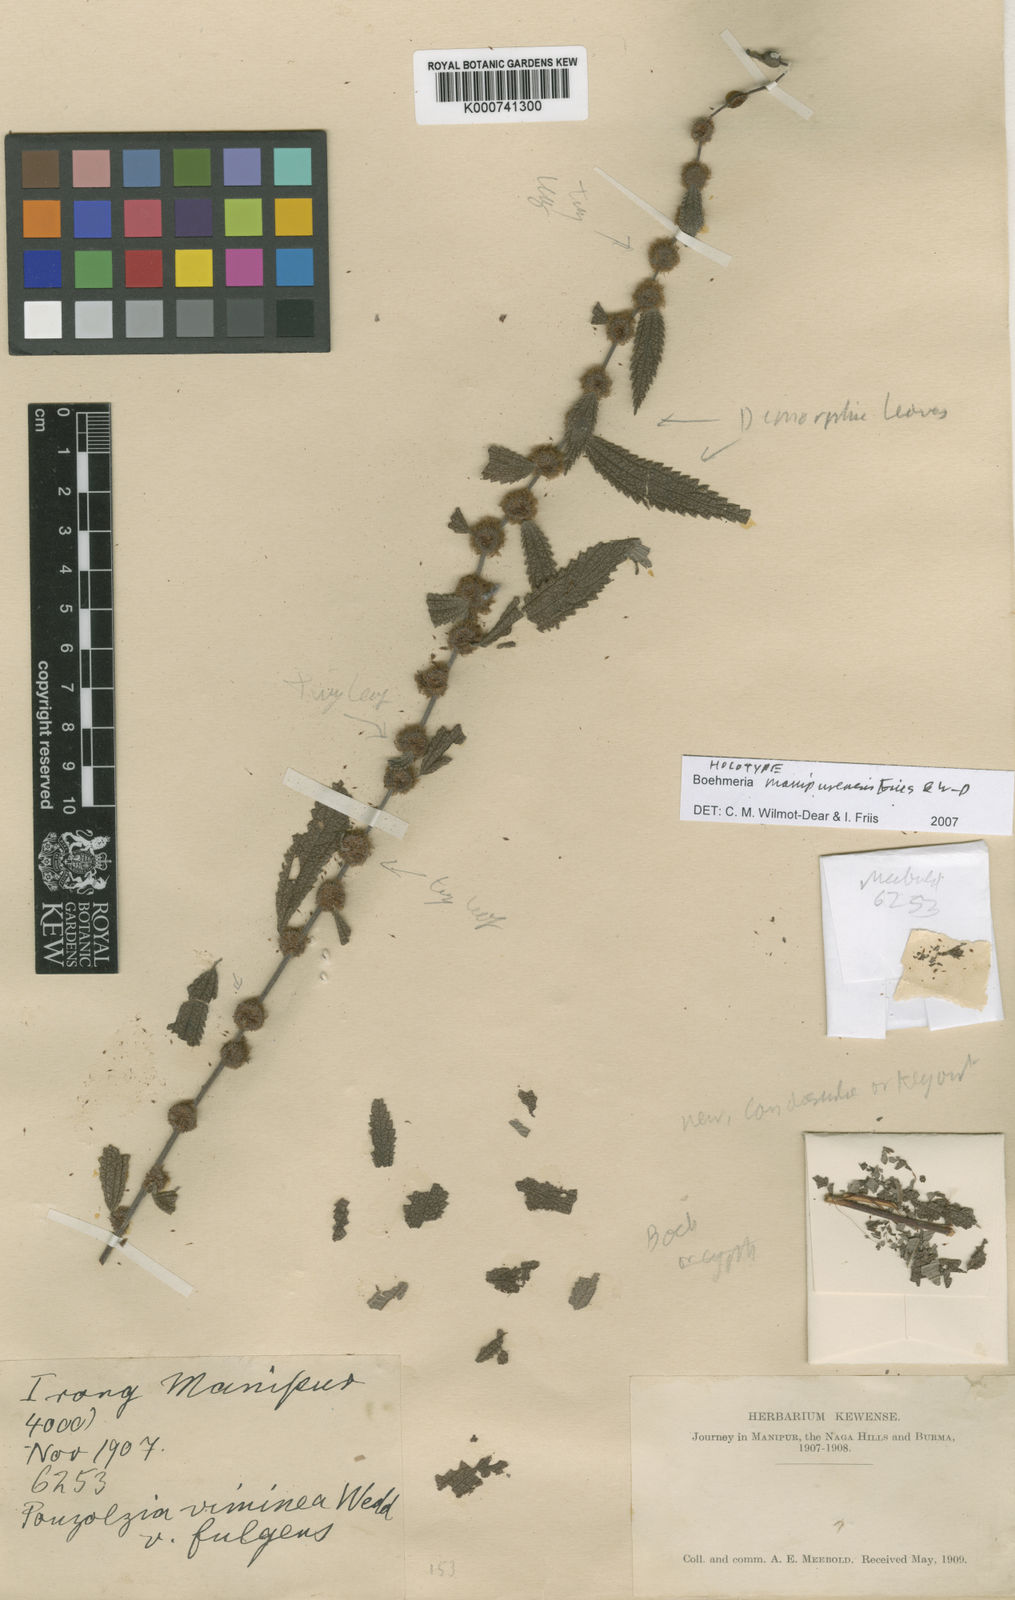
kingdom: Plantae
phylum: Tracheophyta
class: Magnoliopsida
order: Rosales
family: Urticaceae
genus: Boehmeria
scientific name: Boehmeria manipurensis
